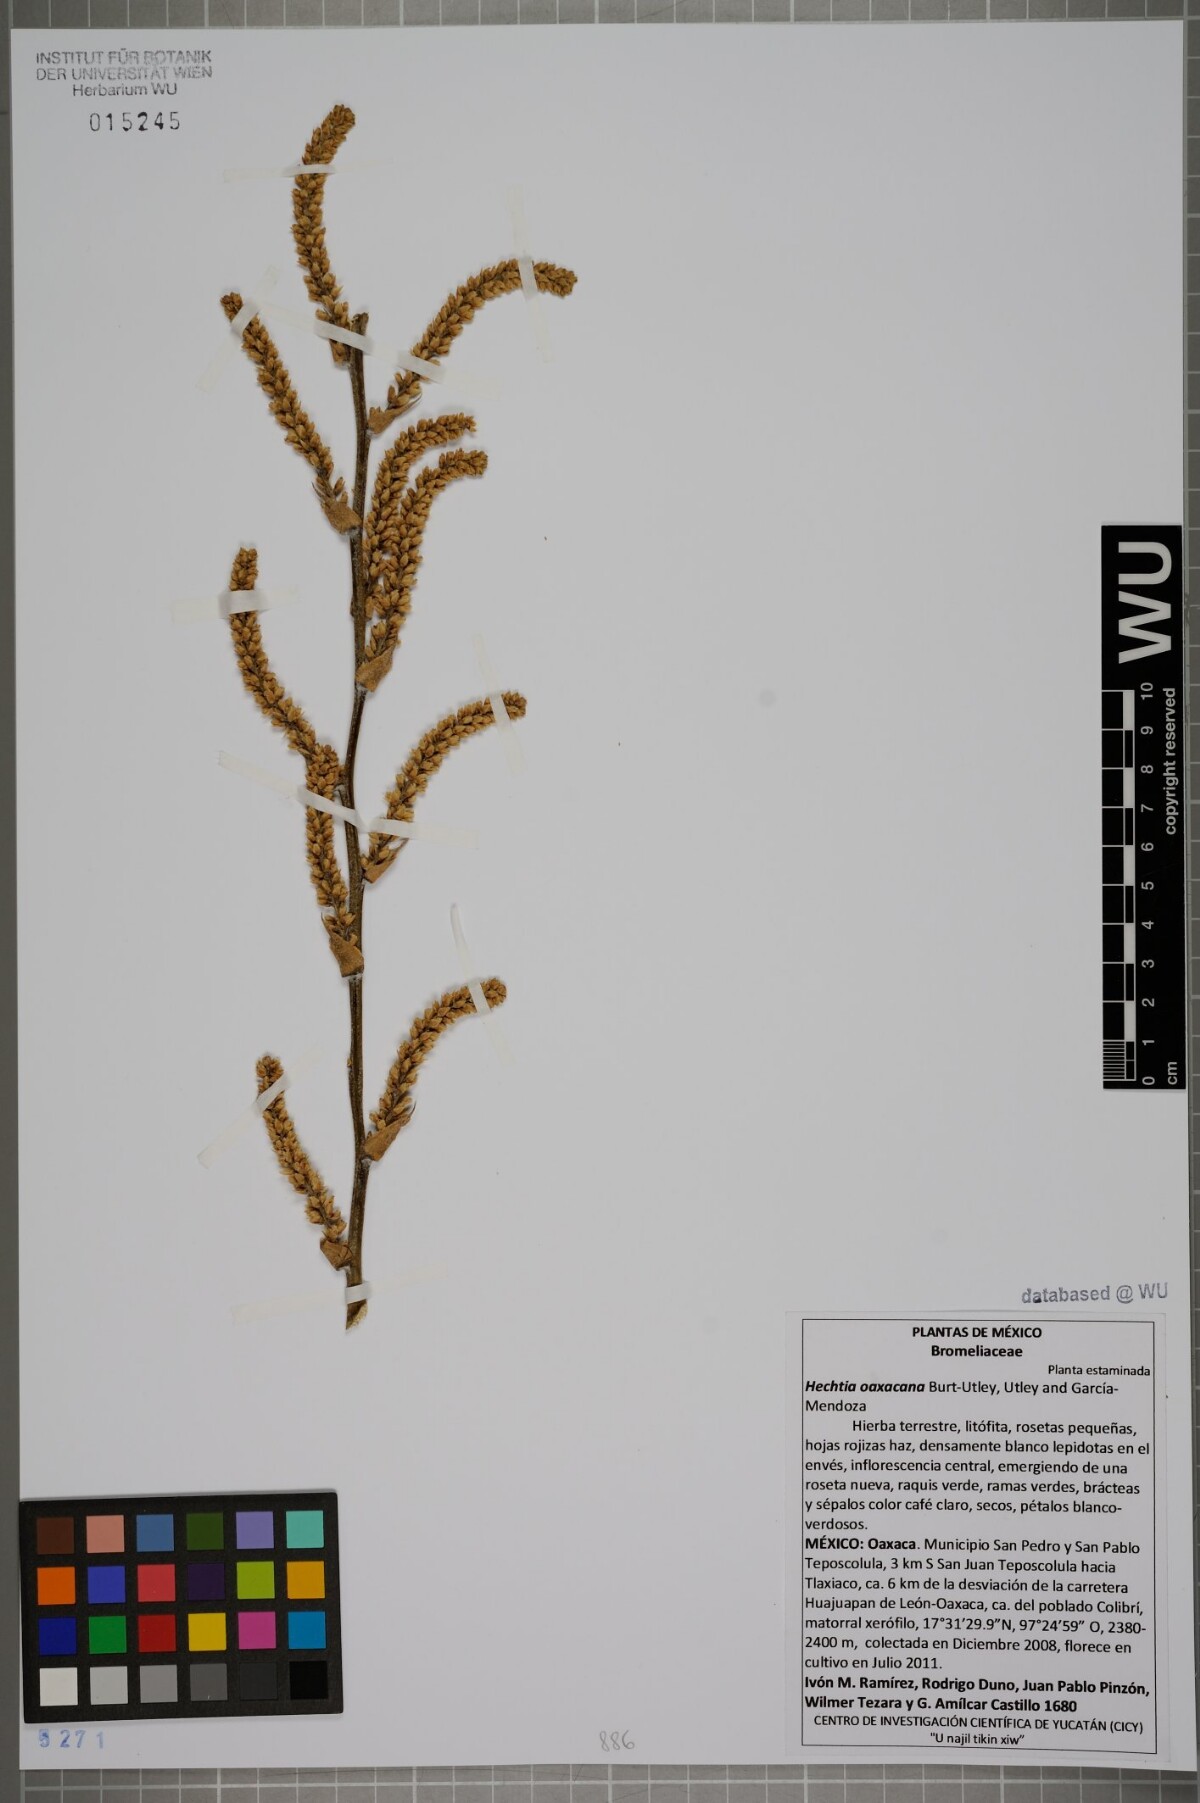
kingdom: Plantae
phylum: Tracheophyta
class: Liliopsida
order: Poales
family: Bromeliaceae
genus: Hechtia
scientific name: Hechtia oaxacana
